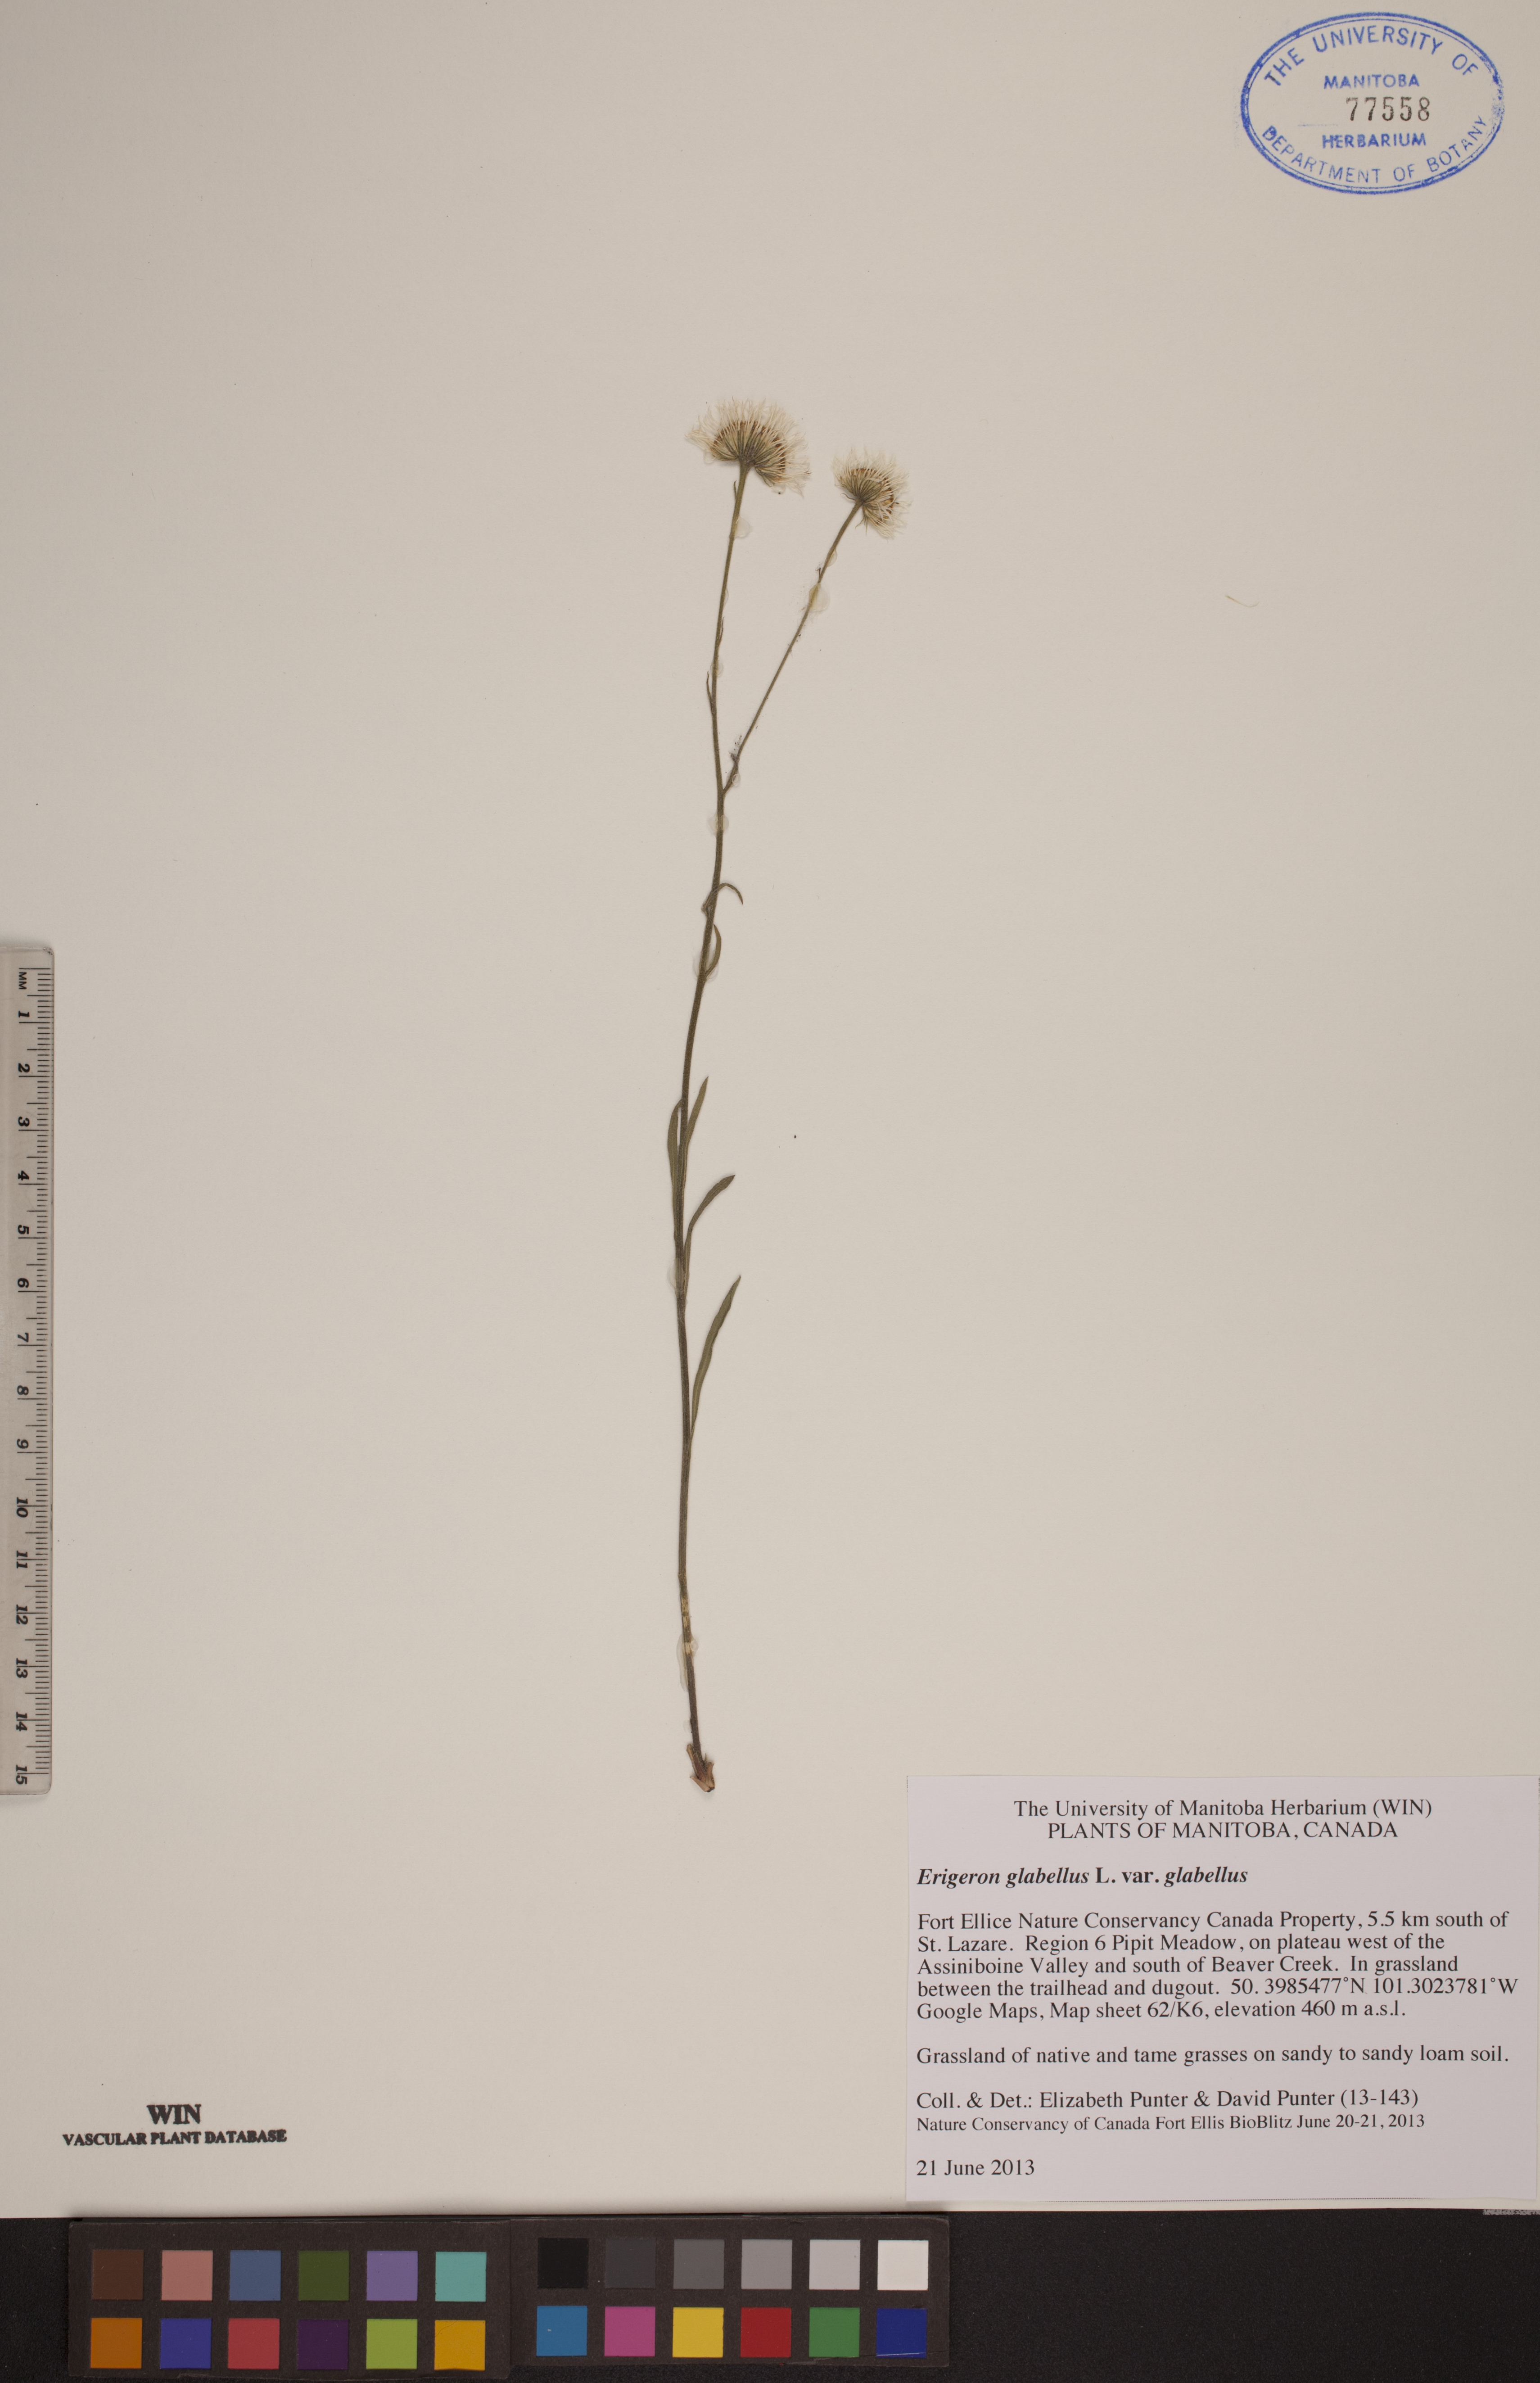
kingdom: Plantae
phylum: Tracheophyta
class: Magnoliopsida
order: Asterales
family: Asteraceae
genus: Erigeron
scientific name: Erigeron glabellus
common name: Smooth fleabane
